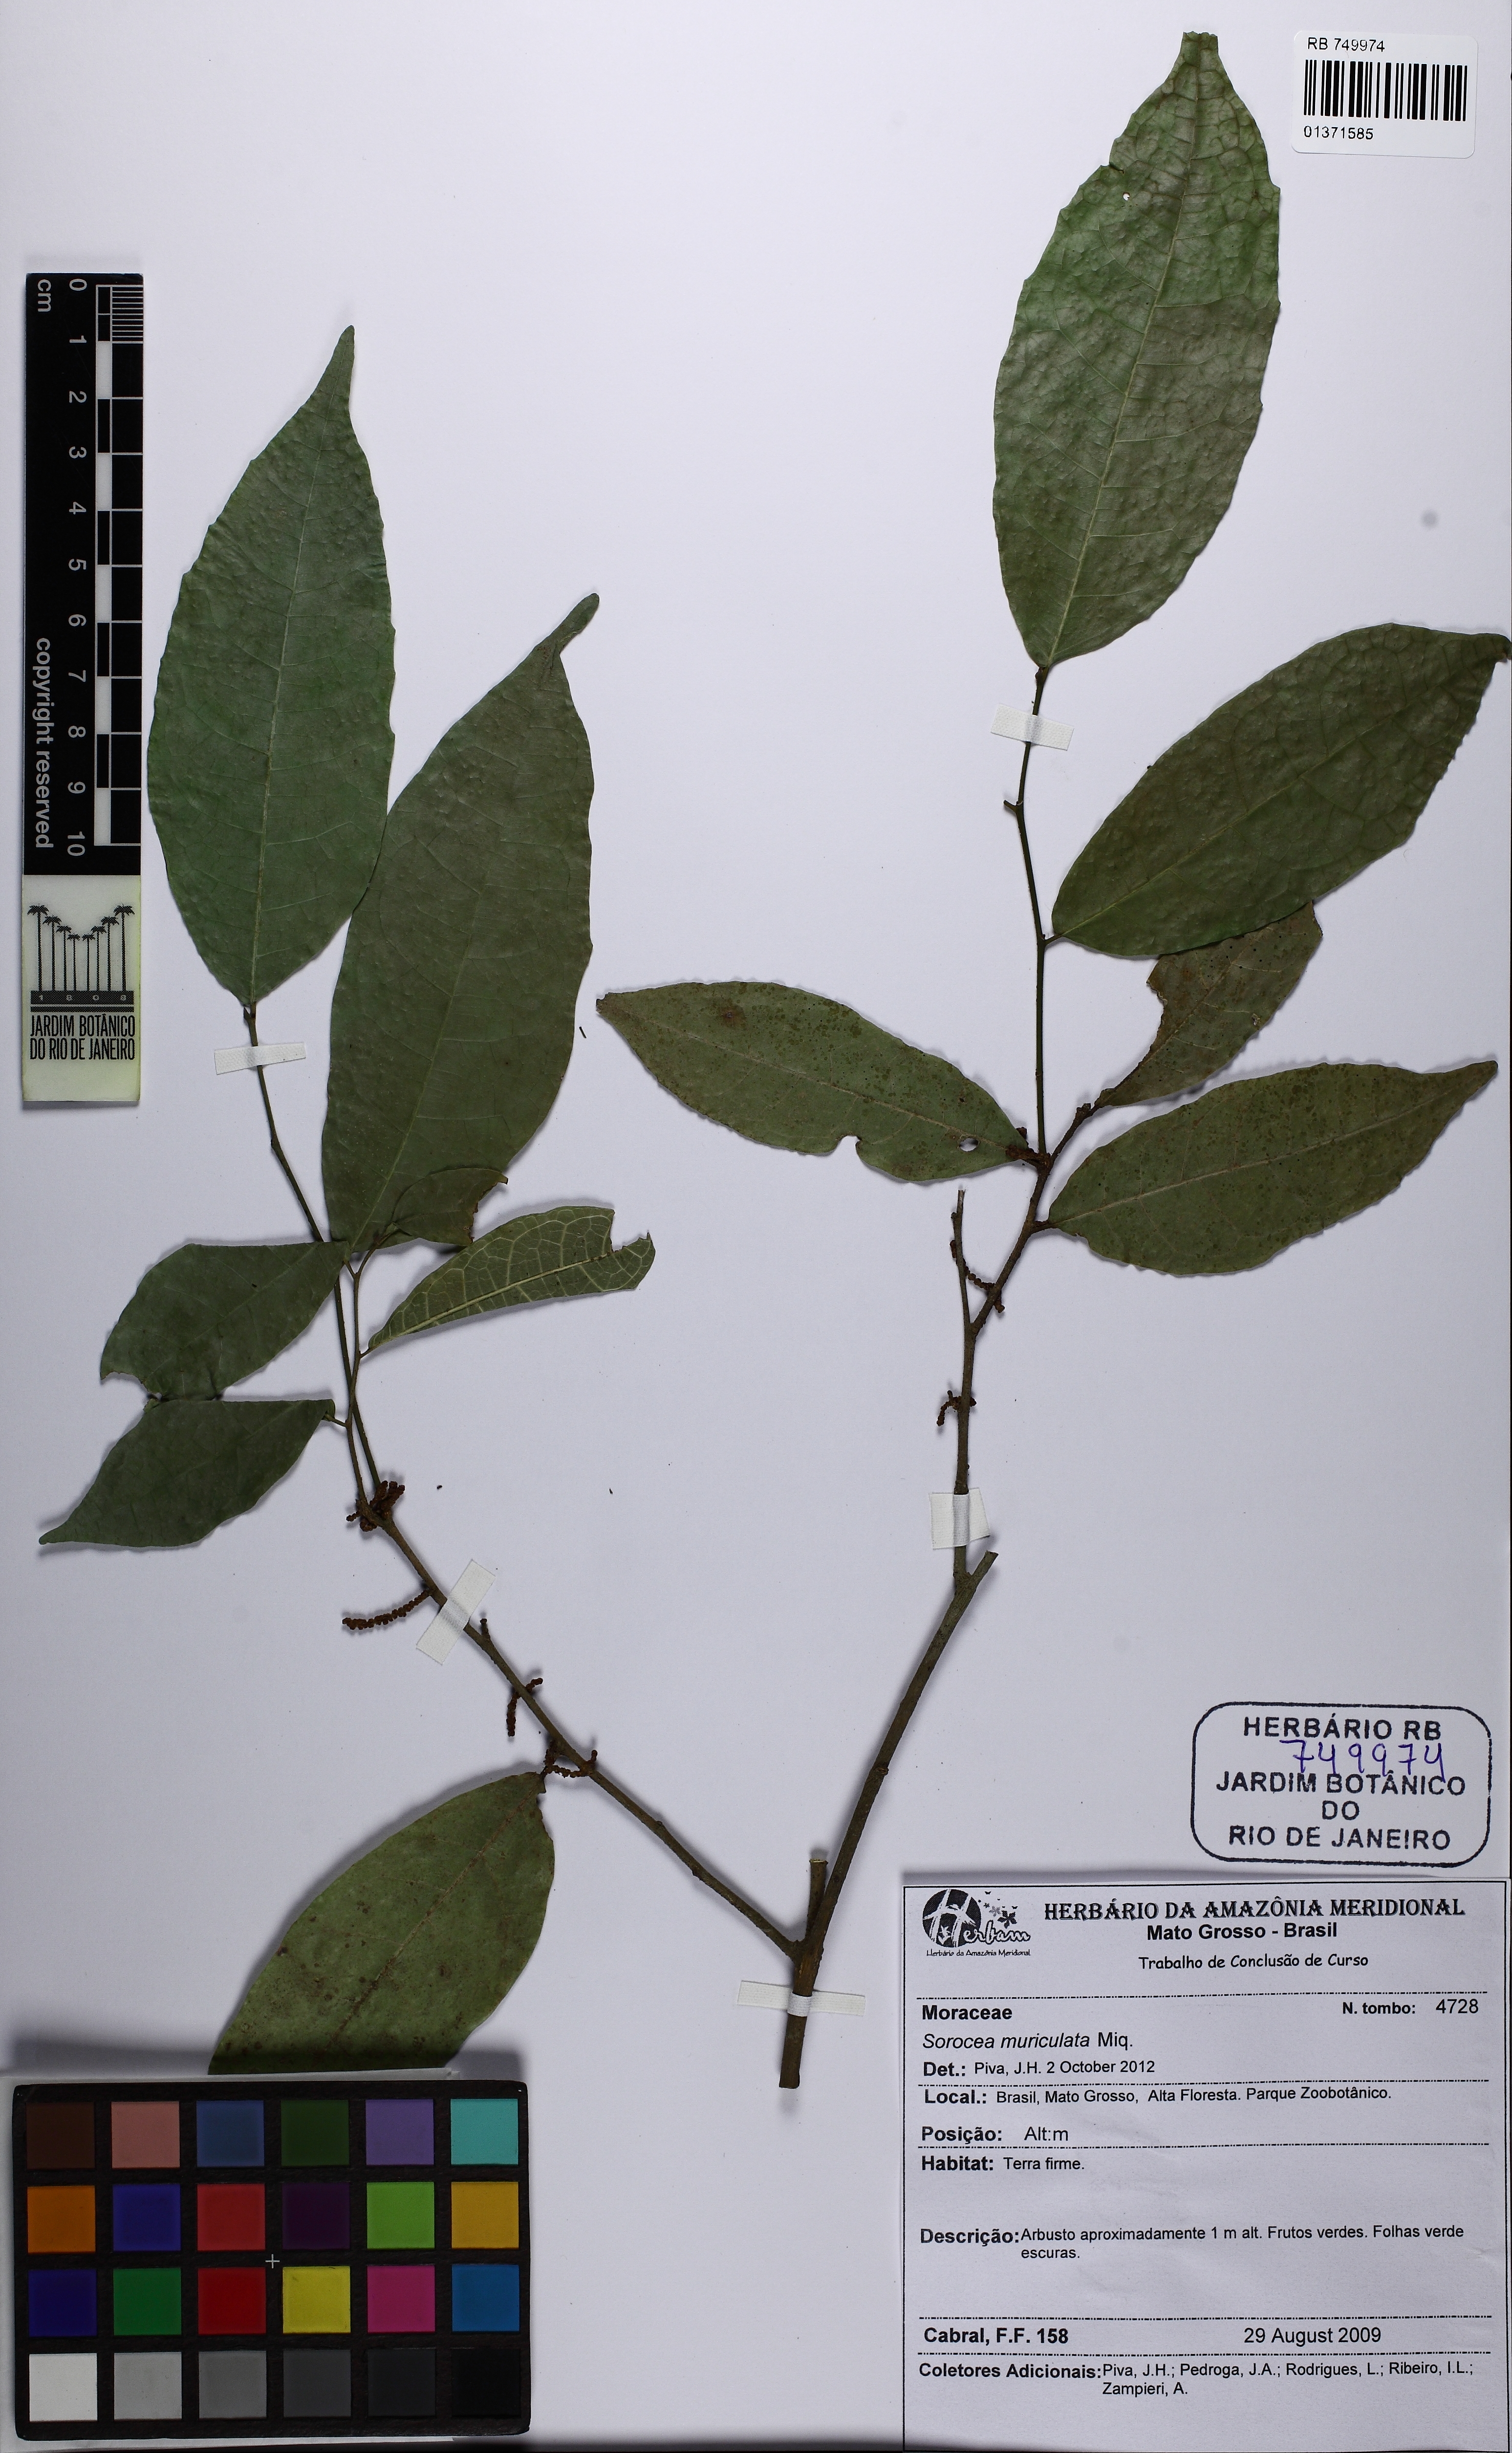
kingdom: Plantae
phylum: Tracheophyta
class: Magnoliopsida
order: Rosales
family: Moraceae
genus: Sorocea
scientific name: Sorocea muriculata
